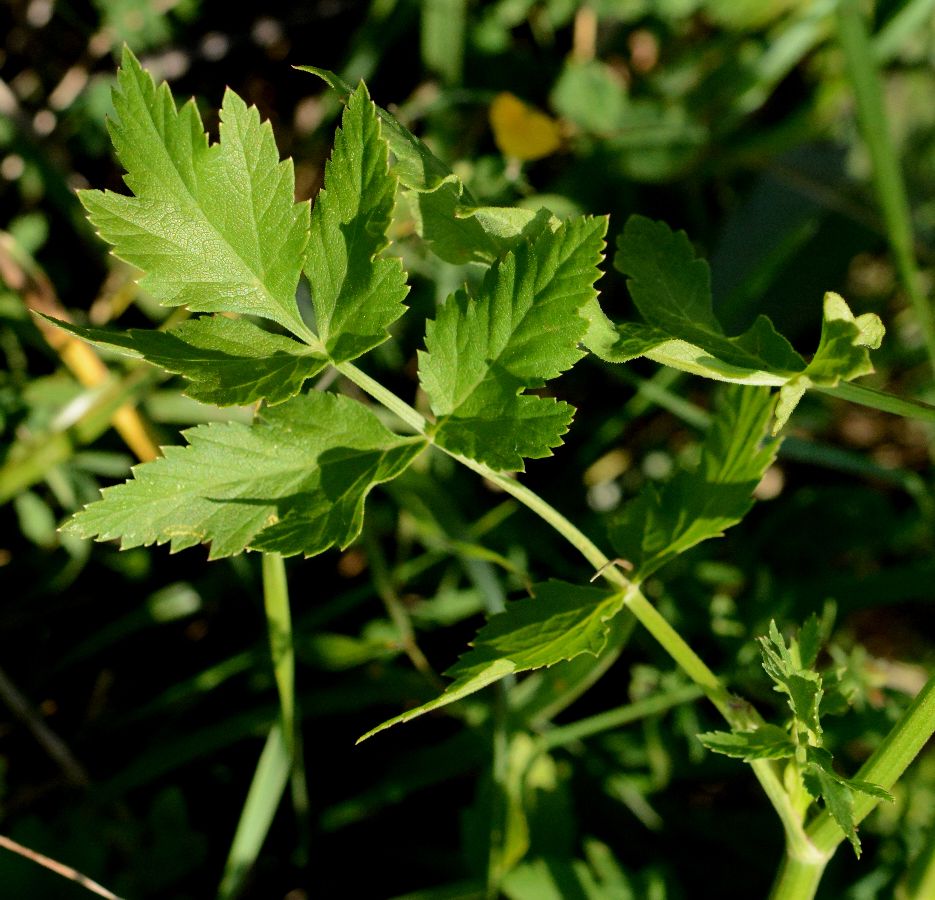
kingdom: Plantae
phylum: Tracheophyta
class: Magnoliopsida
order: Apiales
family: Apiaceae
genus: Pastinaca
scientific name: Pastinaca sativa
